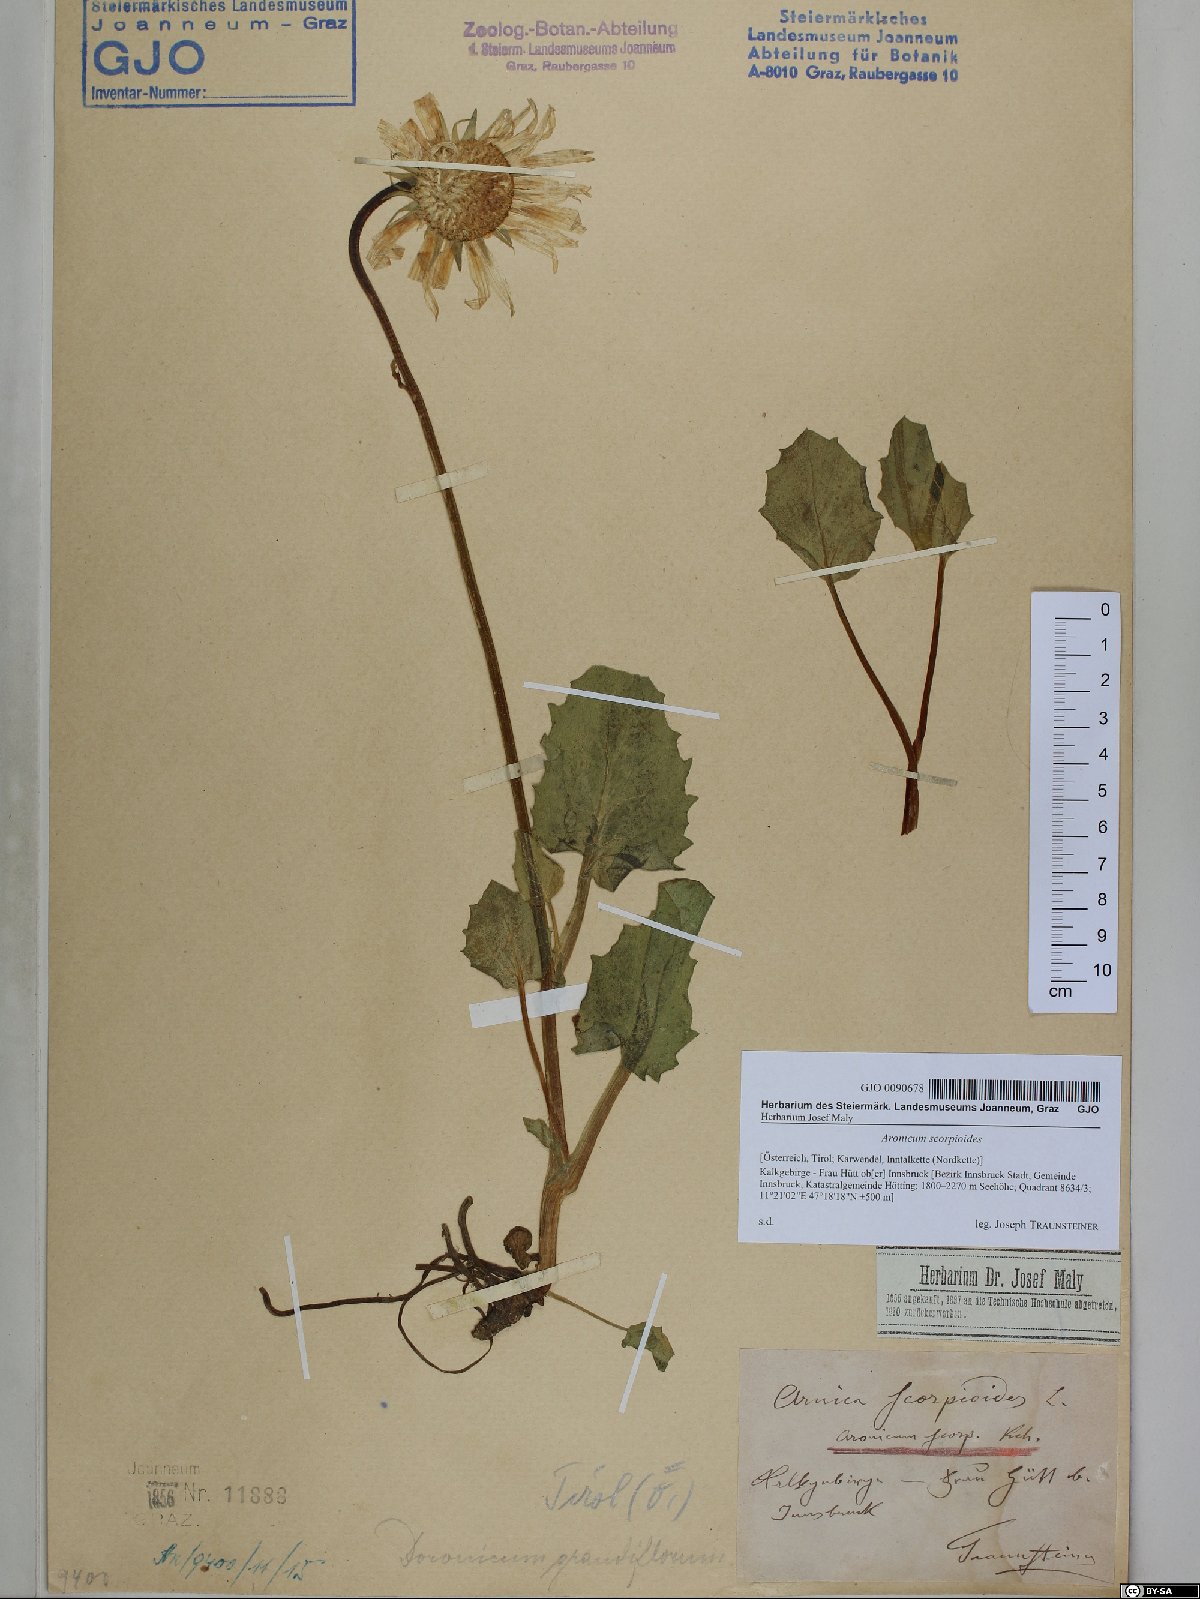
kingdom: Plantae
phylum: Tracheophyta
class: Magnoliopsida
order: Asterales
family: Asteraceae
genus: Doronicum
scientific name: Doronicum grandiflorum
